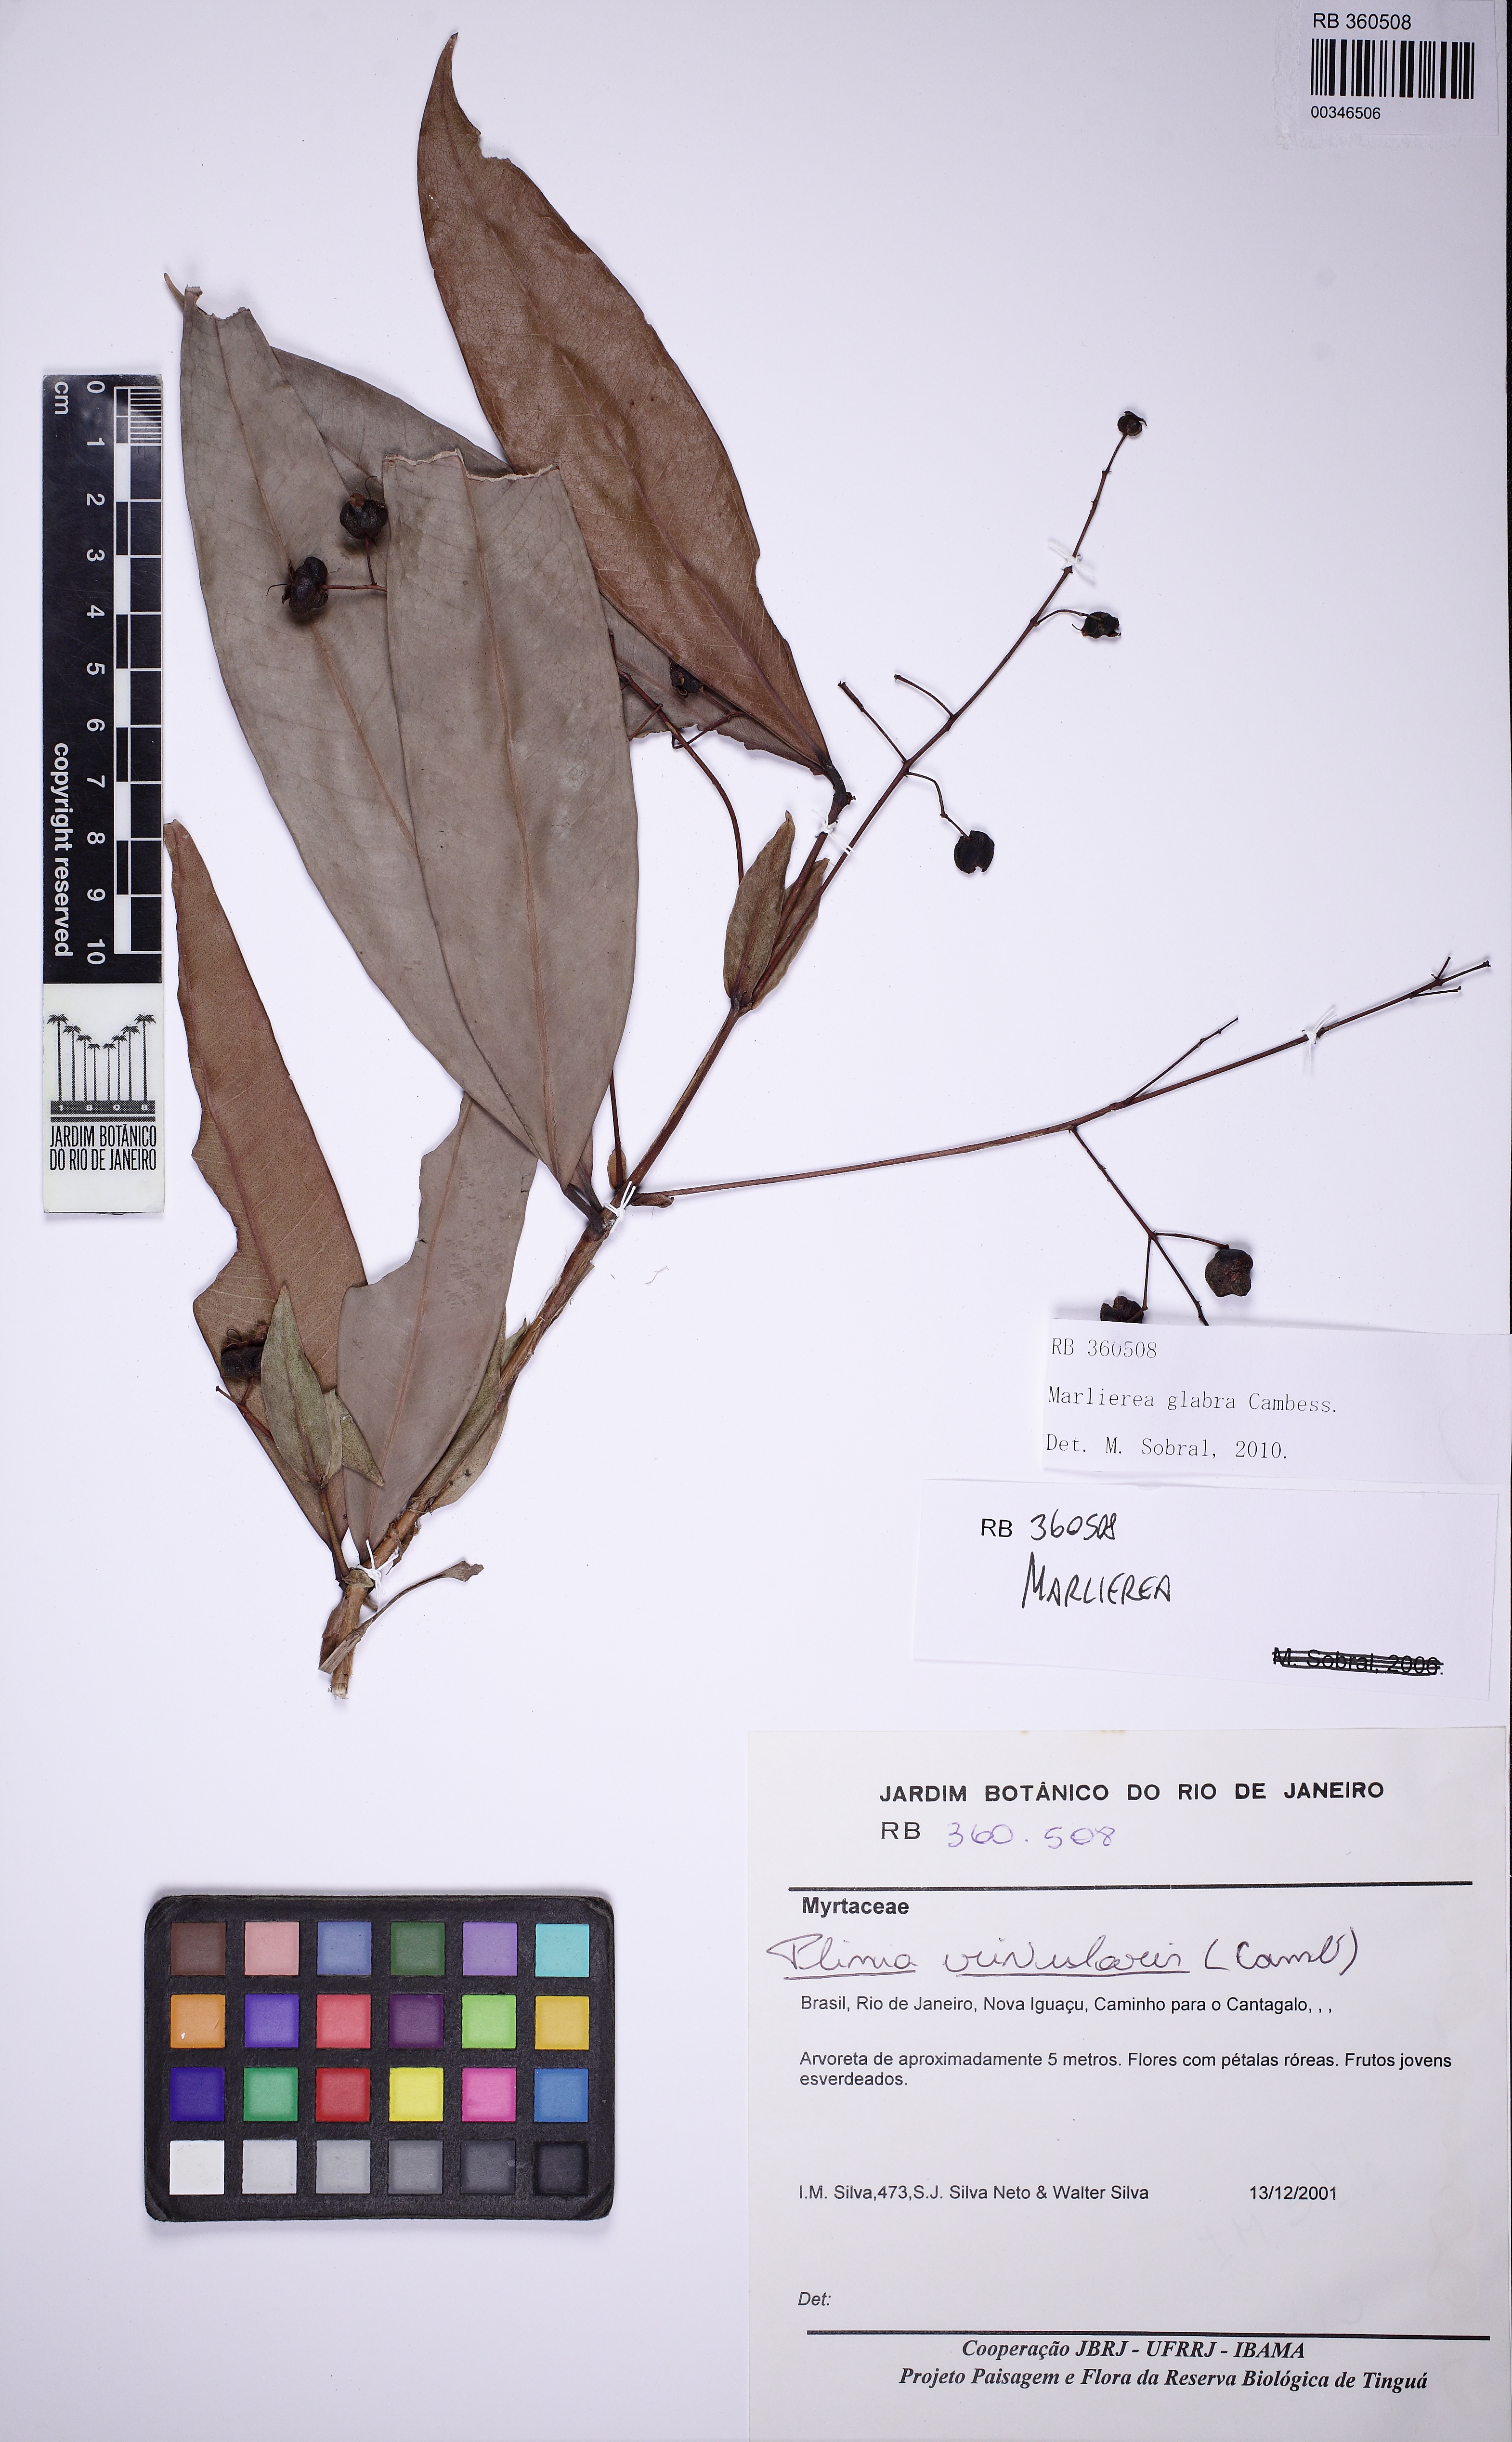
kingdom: Plantae
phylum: Tracheophyta
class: Magnoliopsida
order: Myrtales
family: Myrtaceae
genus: Myrcia
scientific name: Myrcia neoglabra
